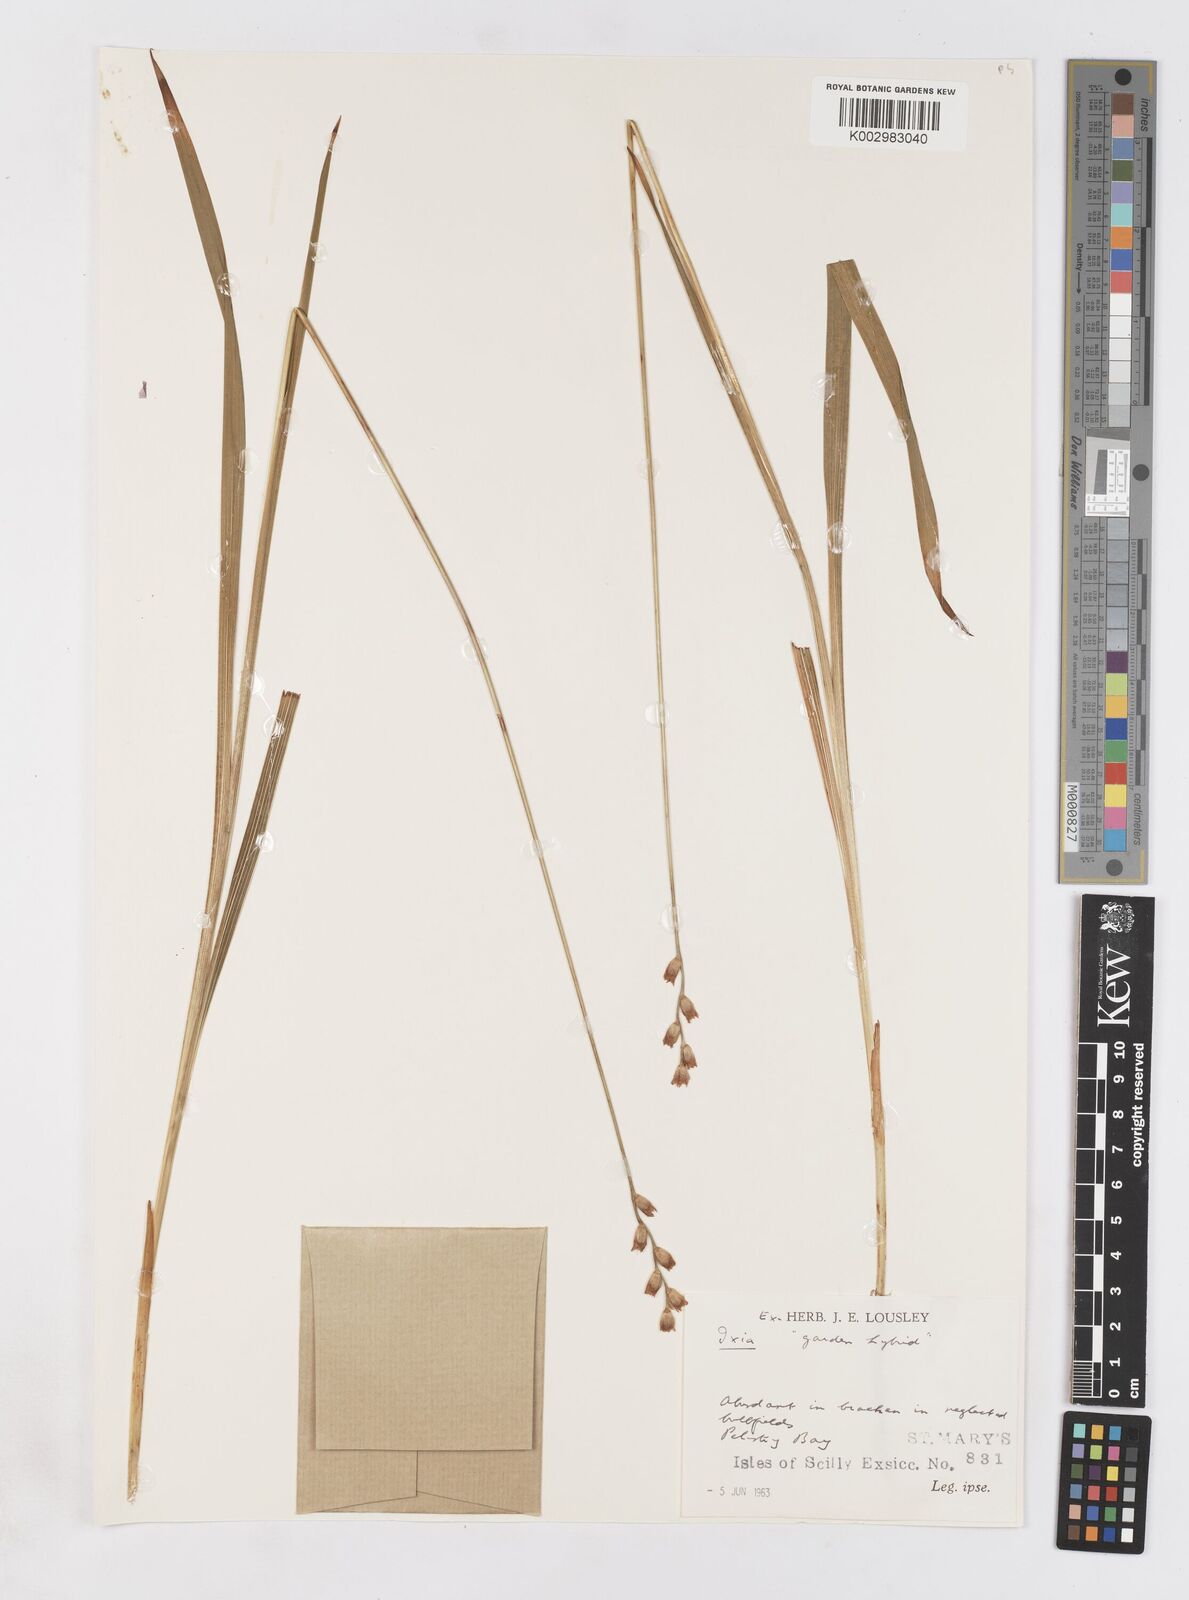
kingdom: Plantae
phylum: Tracheophyta
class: Liliopsida
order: Asparagales
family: Iridaceae
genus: Ixia
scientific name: Ixia
